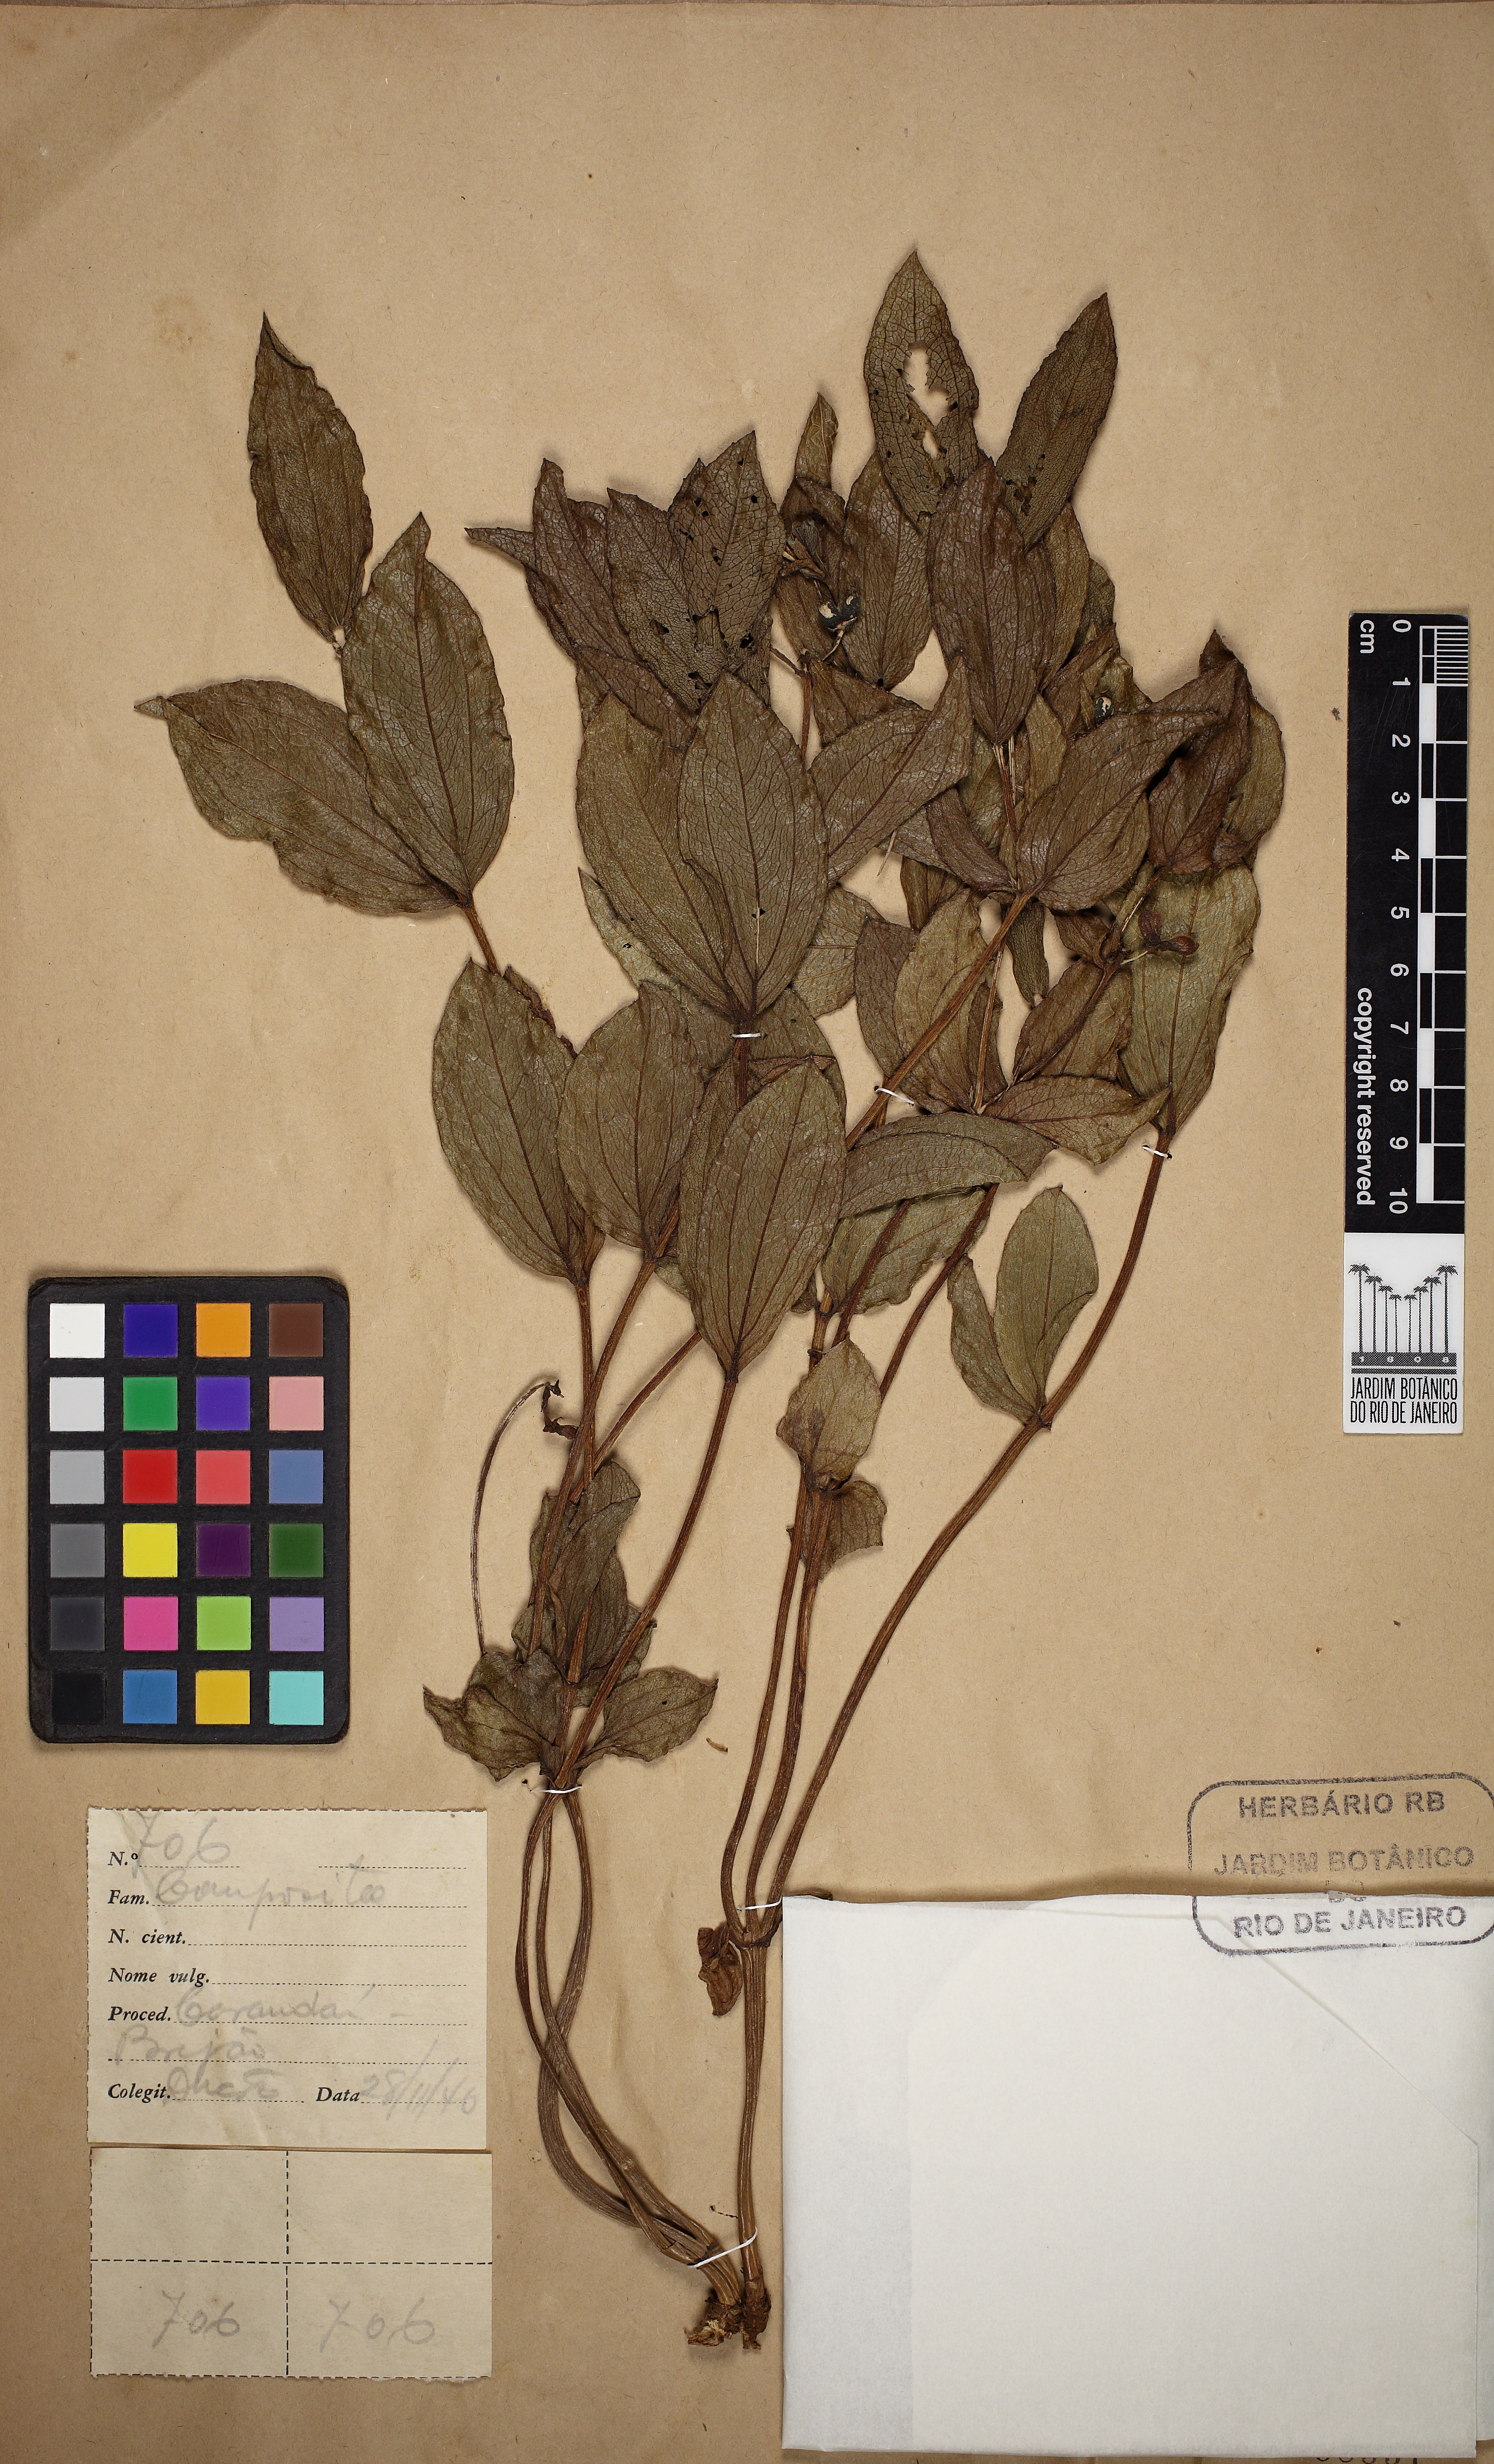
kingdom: Plantae
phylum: Tracheophyta
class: Magnoliopsida
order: Asterales
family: Asteraceae
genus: Ichthyothere
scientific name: Ichthyothere integrifolia
